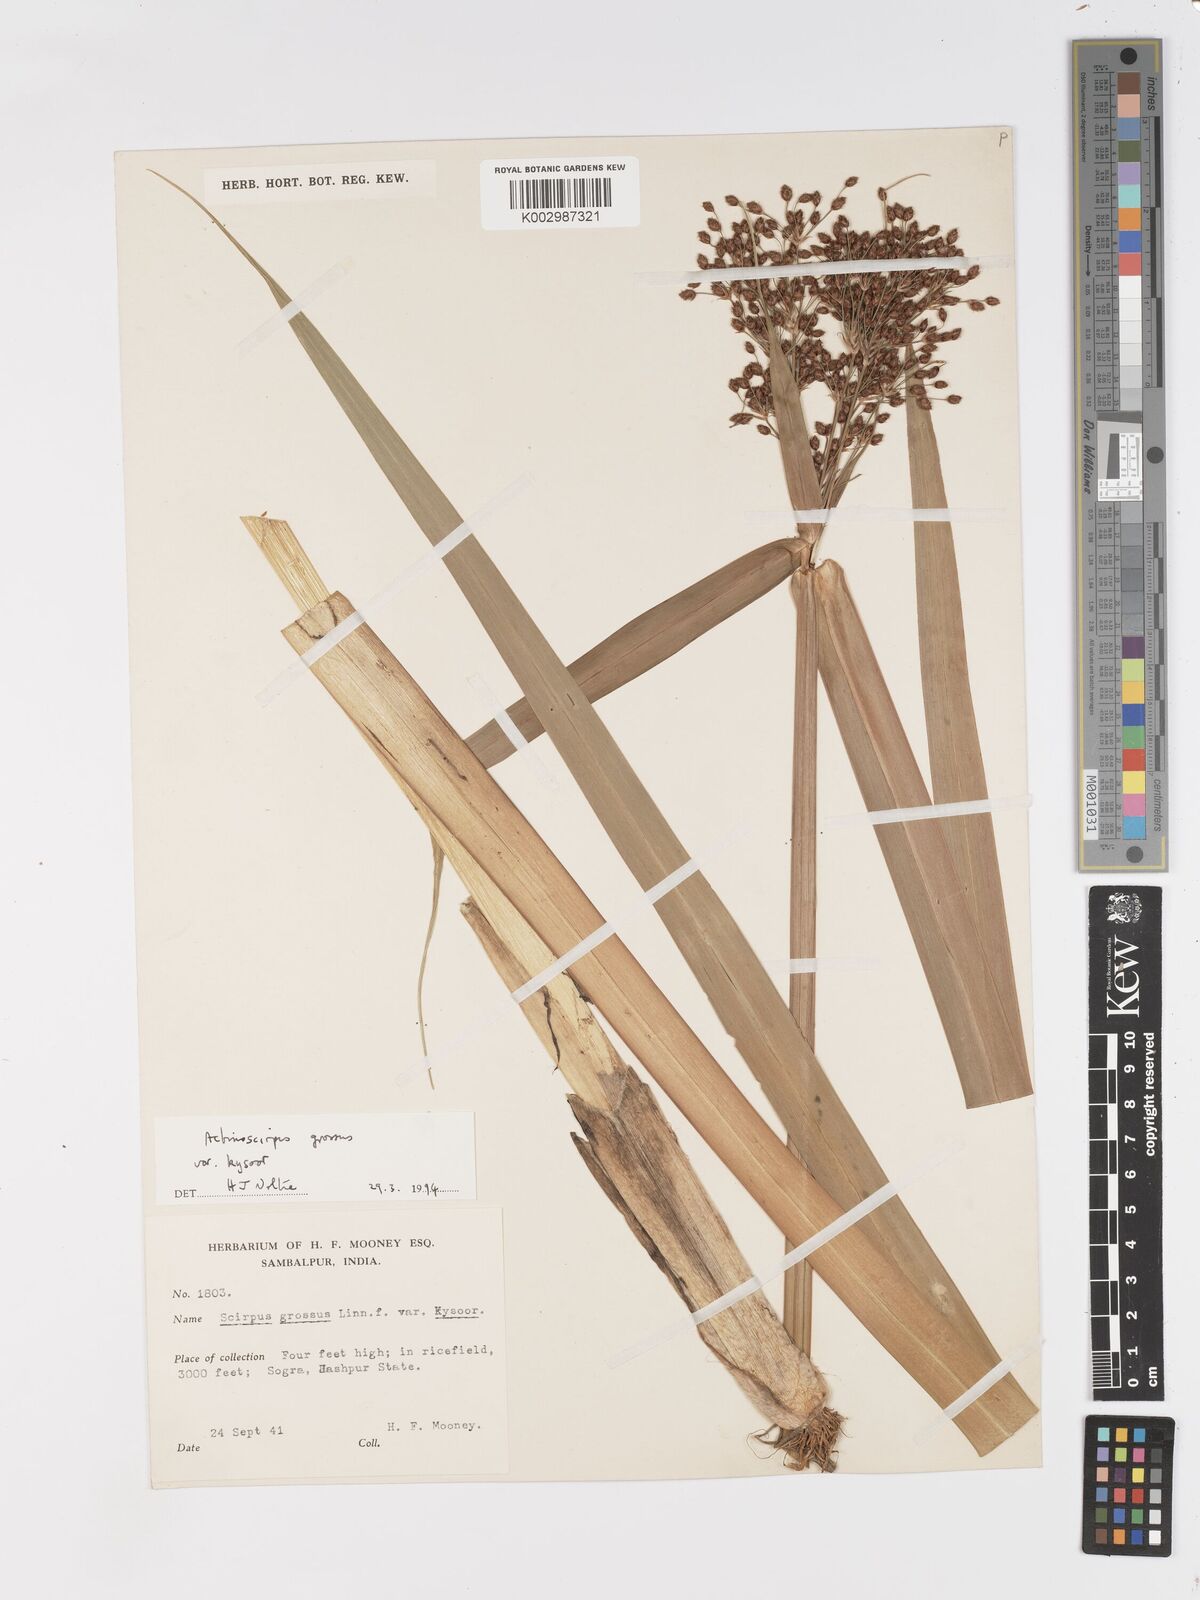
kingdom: Plantae
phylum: Tracheophyta
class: Liliopsida
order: Poales
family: Cyperaceae
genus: Actinoscirpus
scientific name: Actinoscirpus grossus
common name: Giant bur rush
